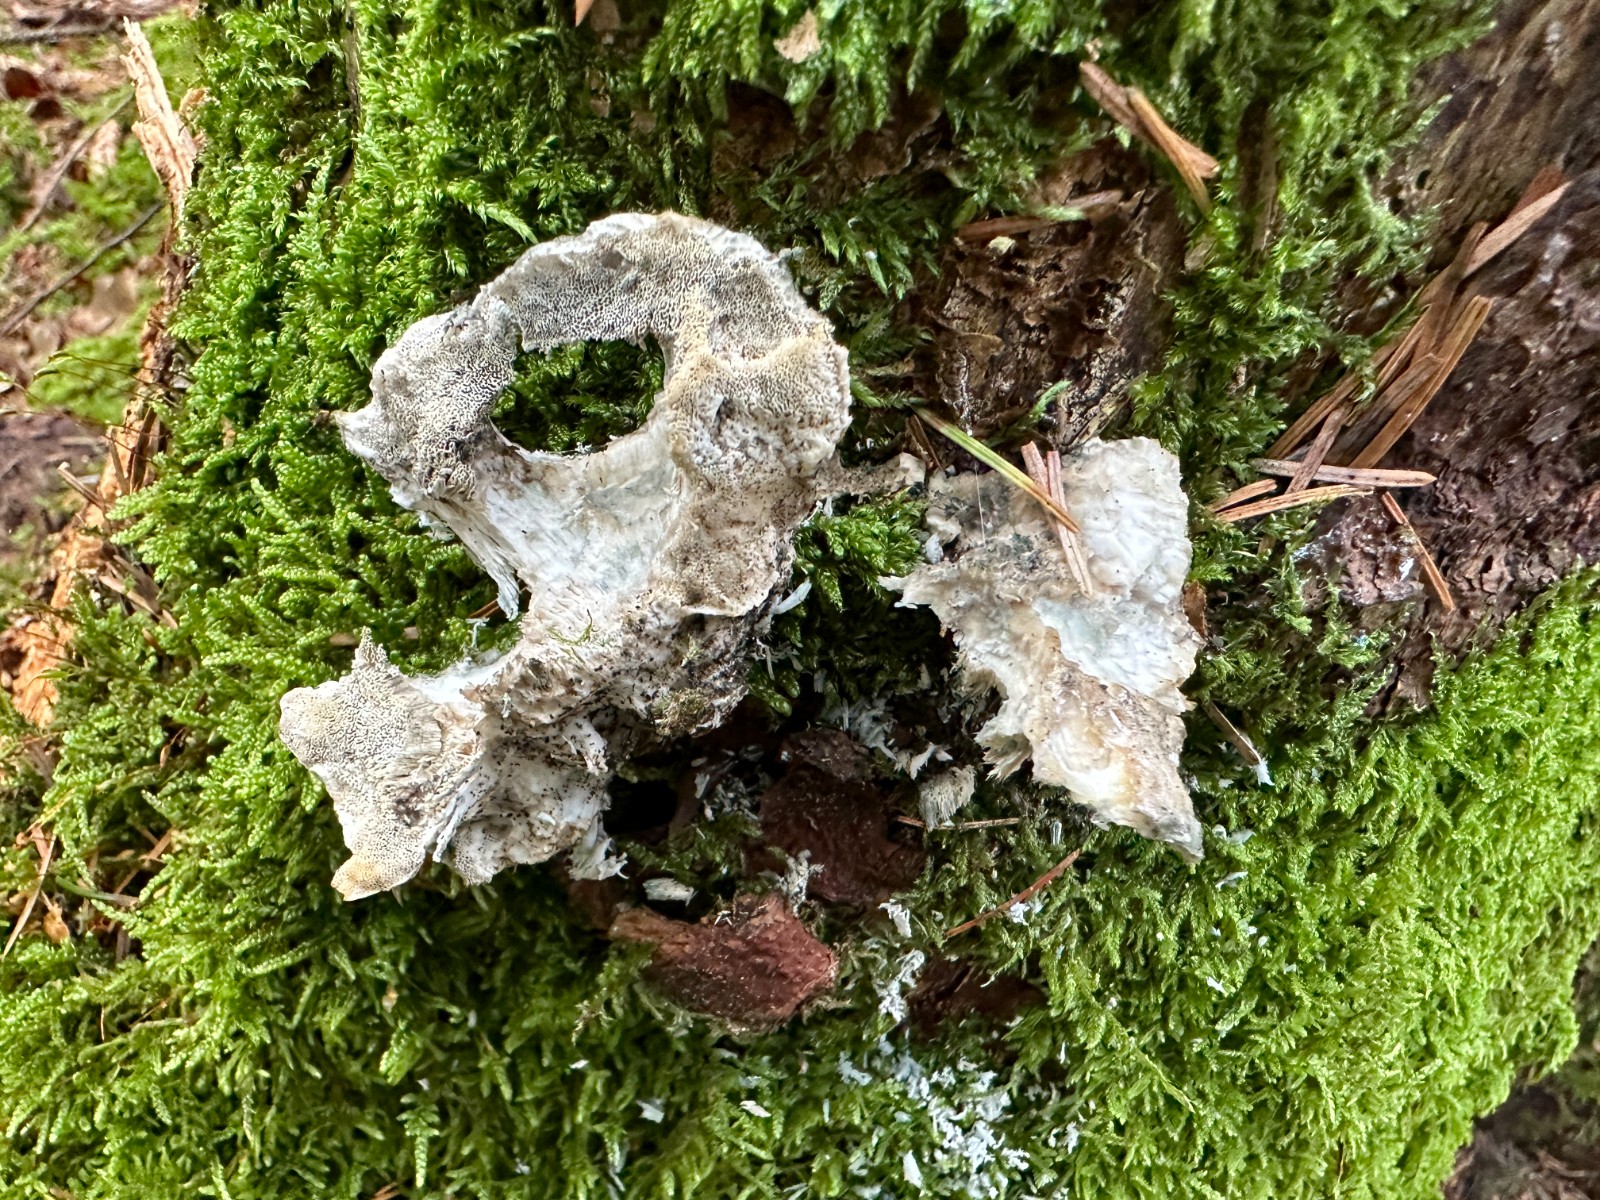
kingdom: Fungi
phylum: Basidiomycota
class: Agaricomycetes
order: Polyporales
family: Polyporaceae
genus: Cyanosporus
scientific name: Cyanosporus caesius
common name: blålig kødporesvamp
